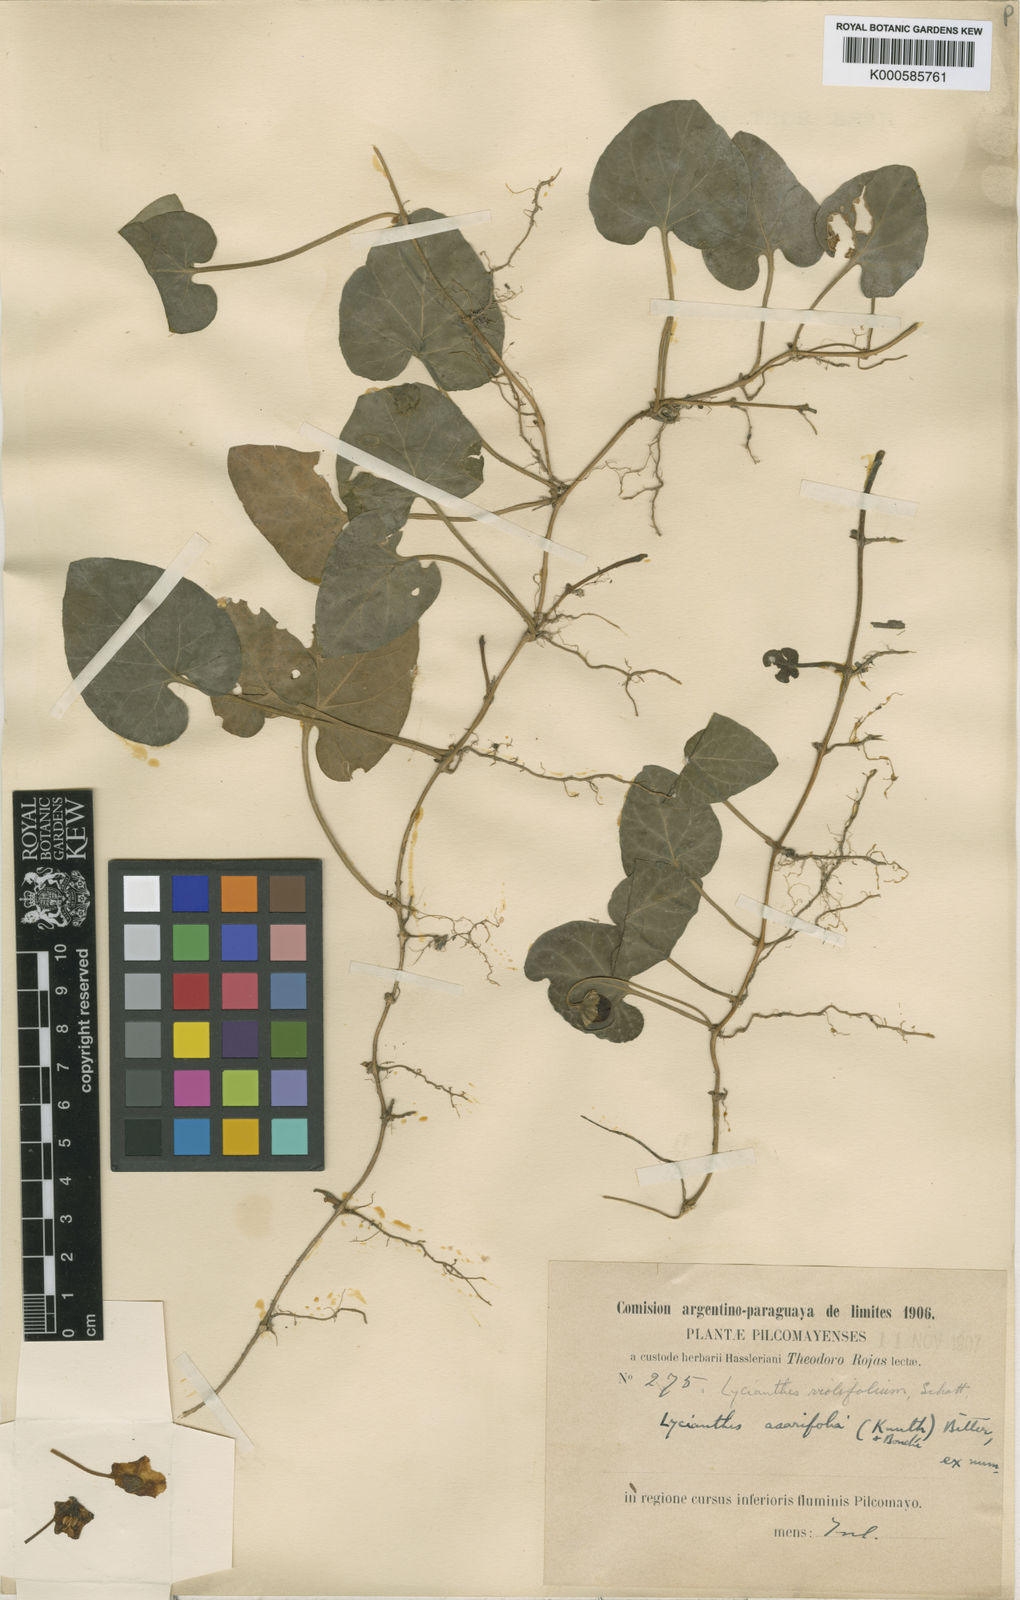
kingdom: Plantae
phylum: Tracheophyta
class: Magnoliopsida
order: Solanales
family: Solanaceae
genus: Lycianthes
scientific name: Lycianthes
